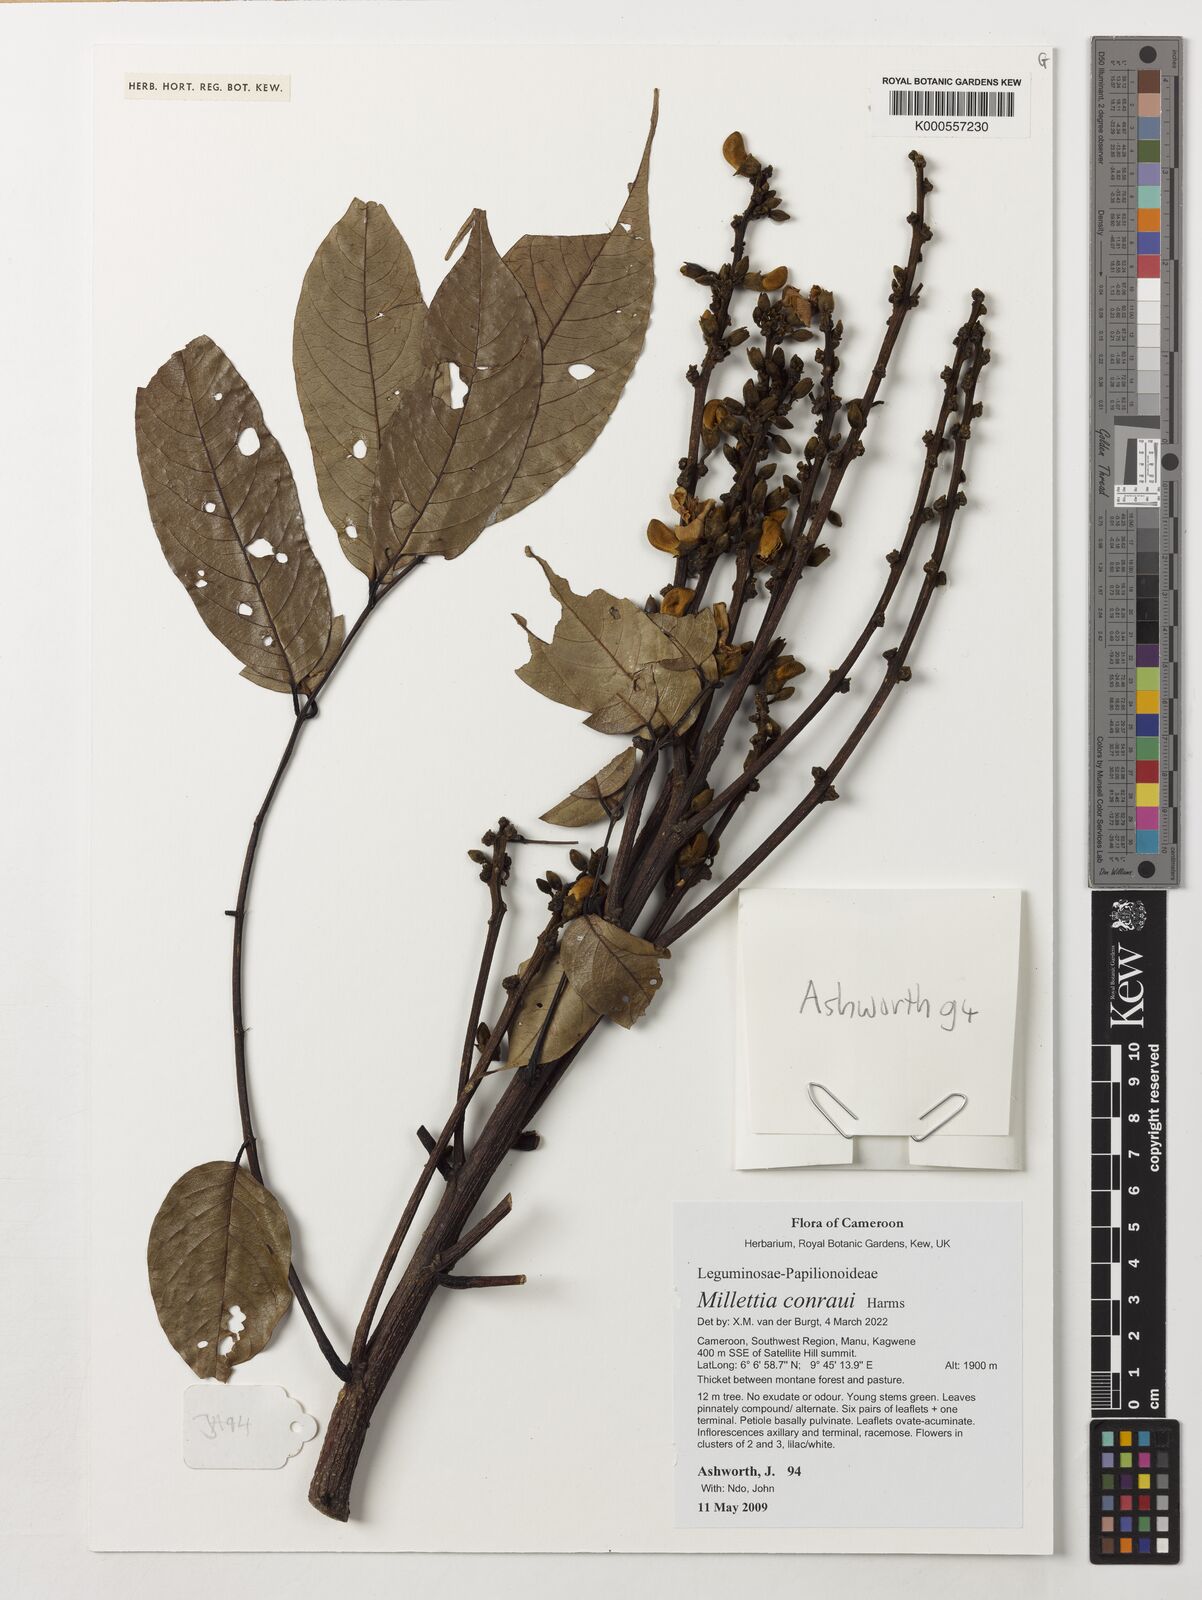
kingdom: Plantae
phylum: Tracheophyta
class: Magnoliopsida
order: Fabales
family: Fabaceae
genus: Millettia
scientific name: Millettia conraui
